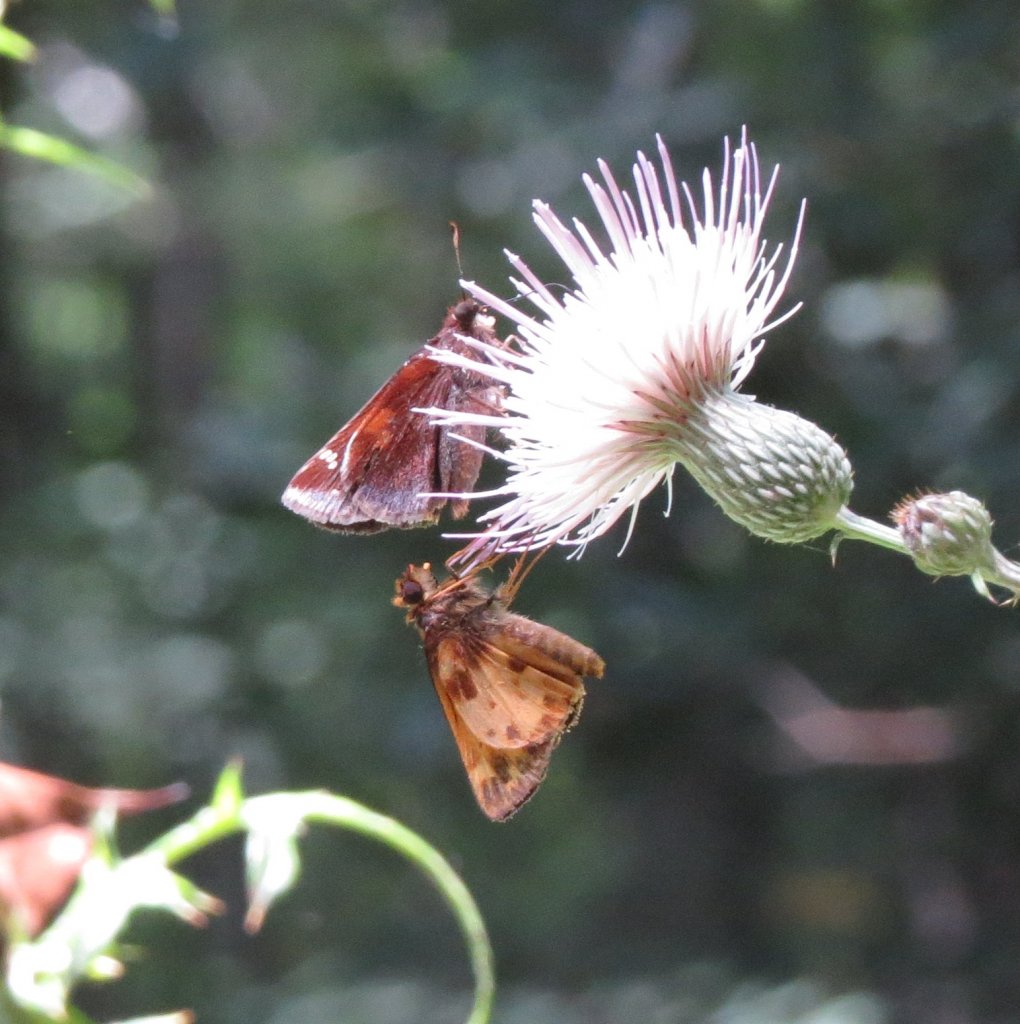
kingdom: Animalia
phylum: Arthropoda
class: Insecta
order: Lepidoptera
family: Hesperiidae
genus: Lon
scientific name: Lon zabulon
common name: Zabulon Skipper
